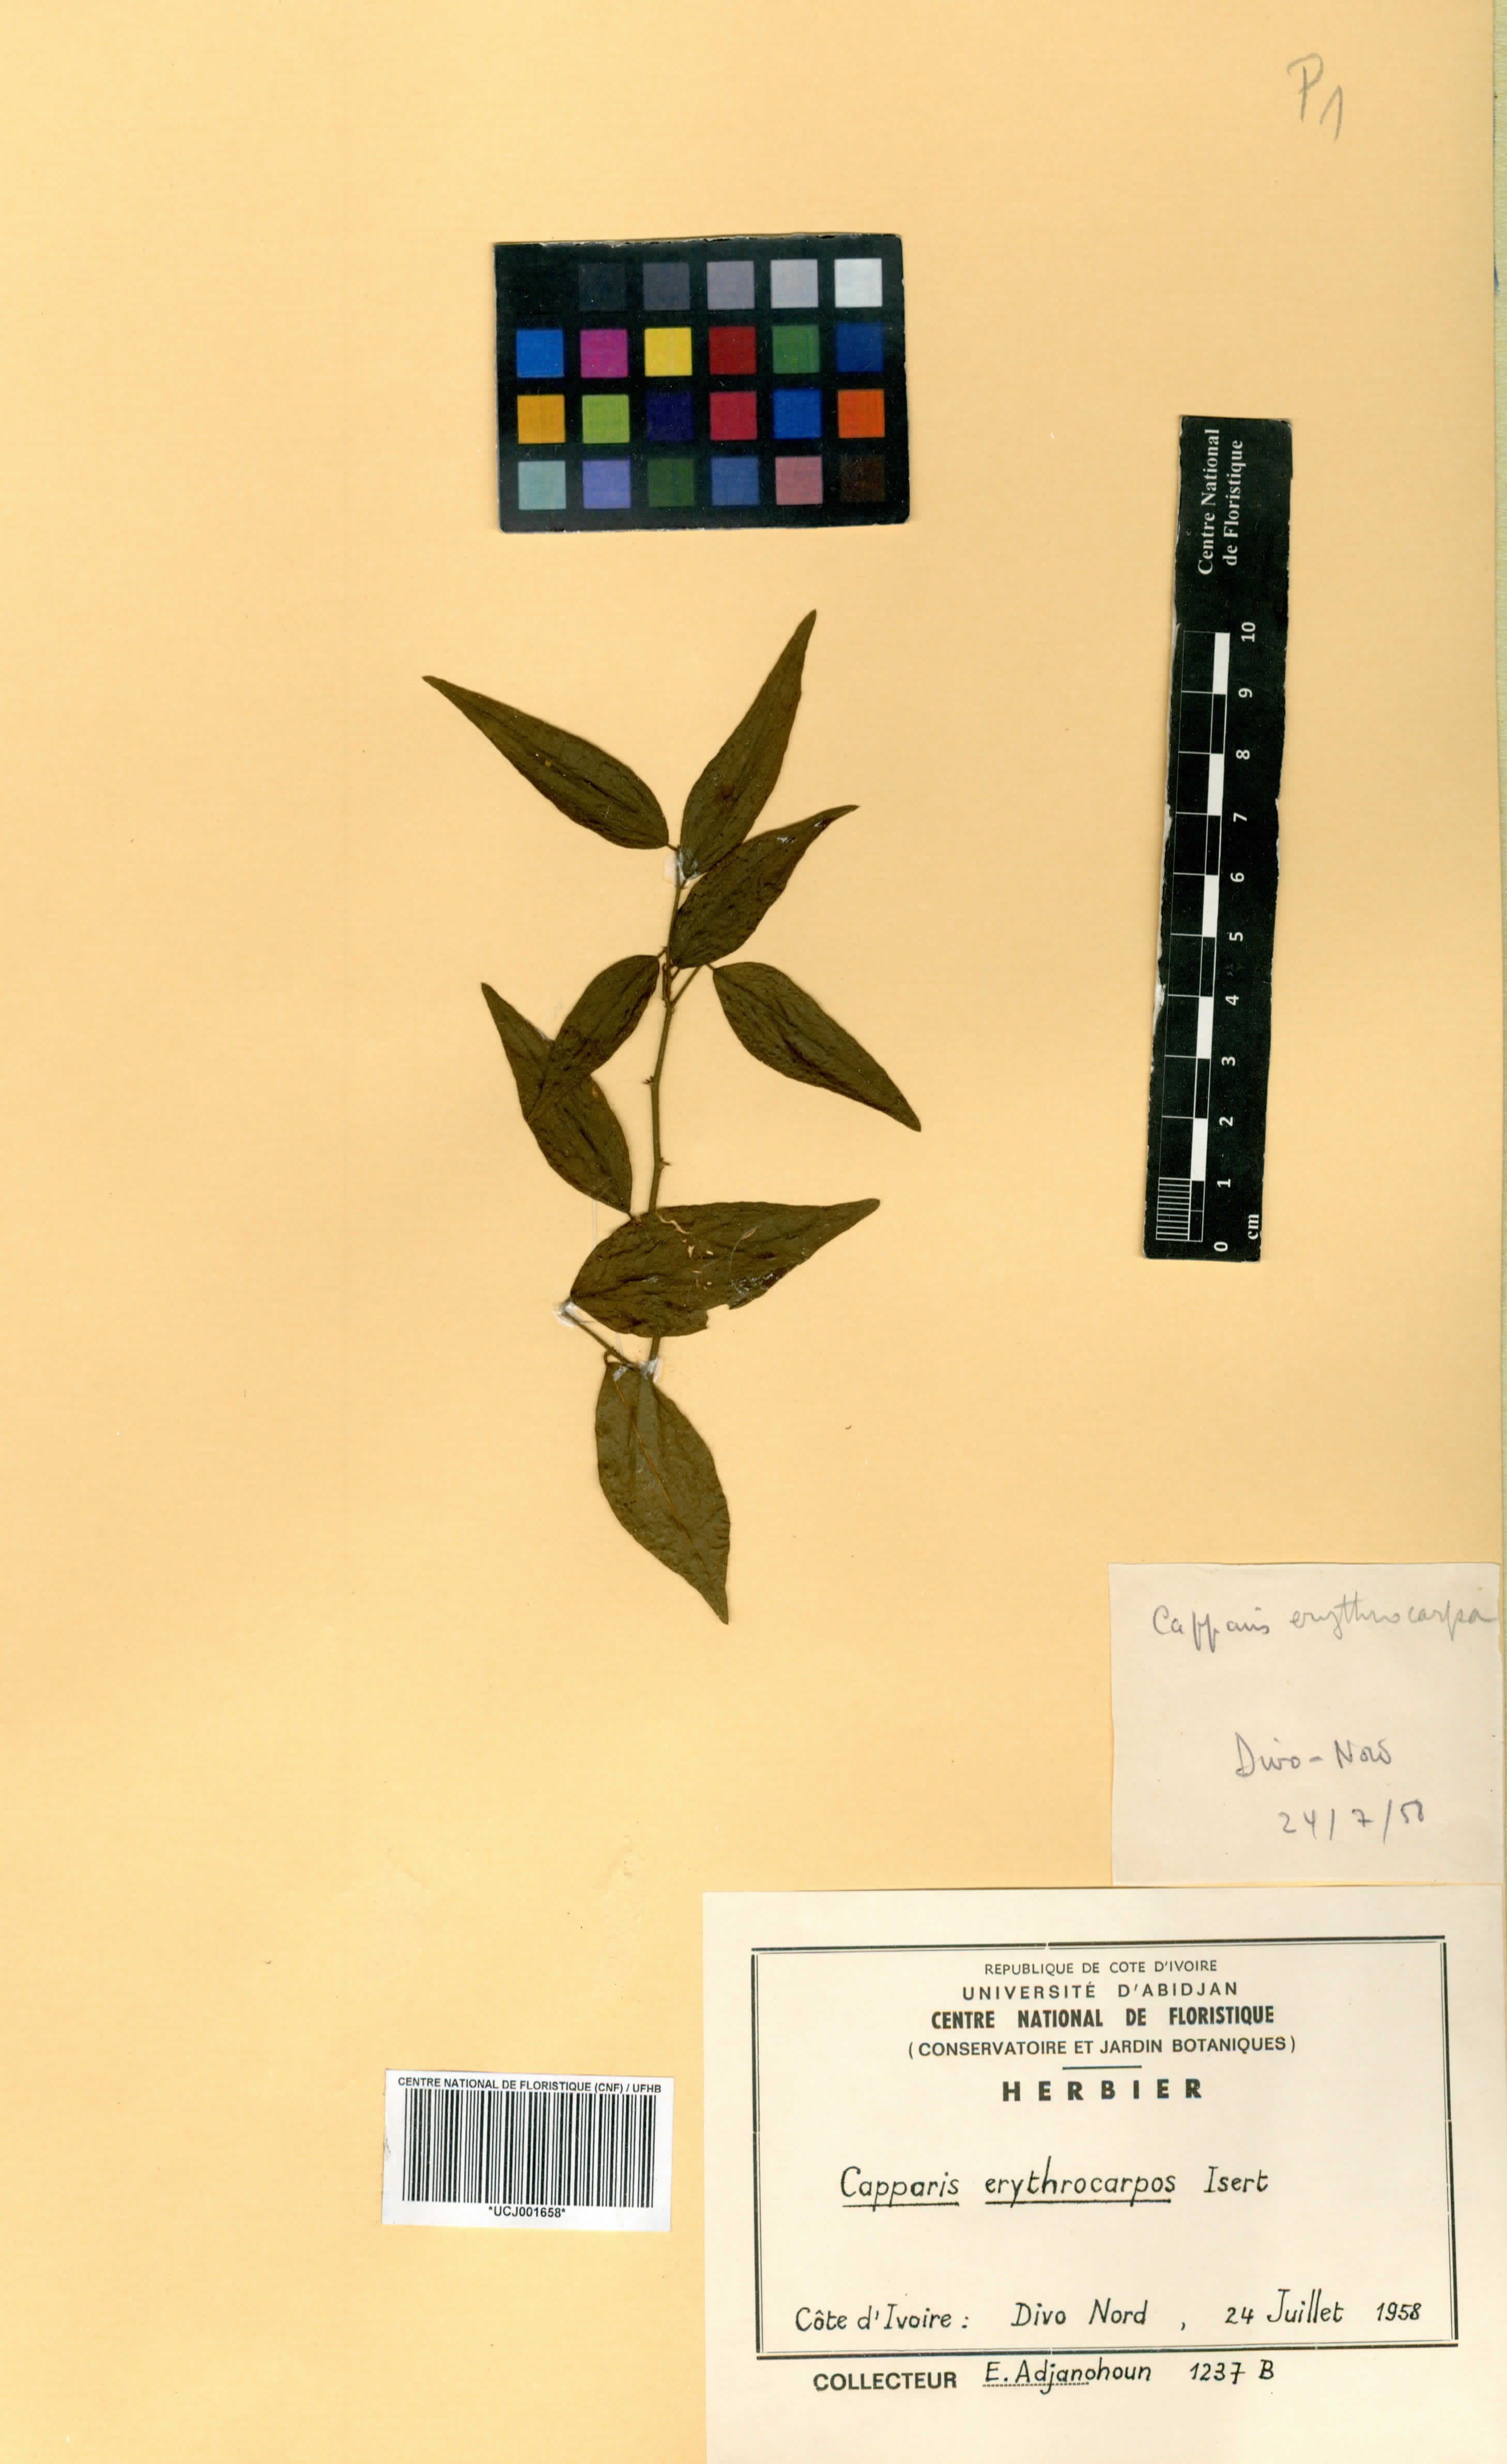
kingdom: Plantae
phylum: Tracheophyta
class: Magnoliopsida
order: Brassicales
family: Capparaceae
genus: Capparis
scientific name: Capparis erythrocarpos
